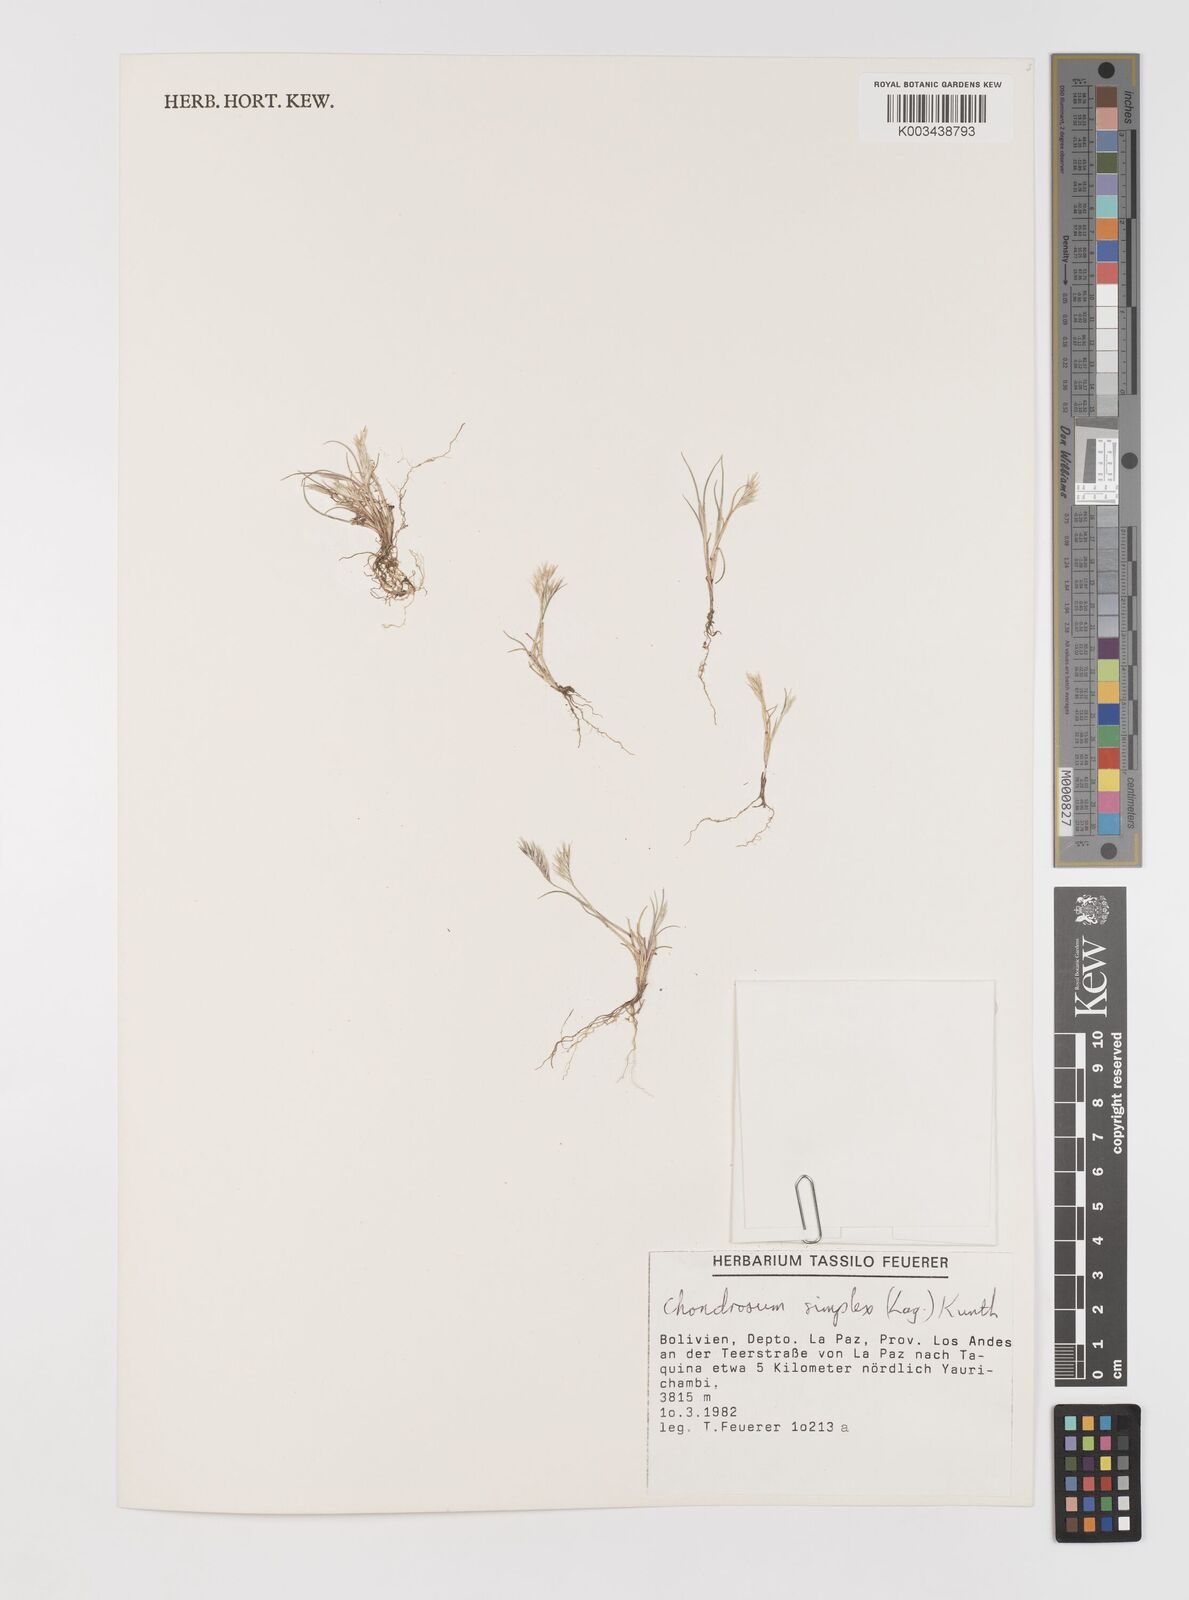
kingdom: Plantae
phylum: Tracheophyta
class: Liliopsida
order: Poales
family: Poaceae
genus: Bouteloua
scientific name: Bouteloua simplex
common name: Mat grama
